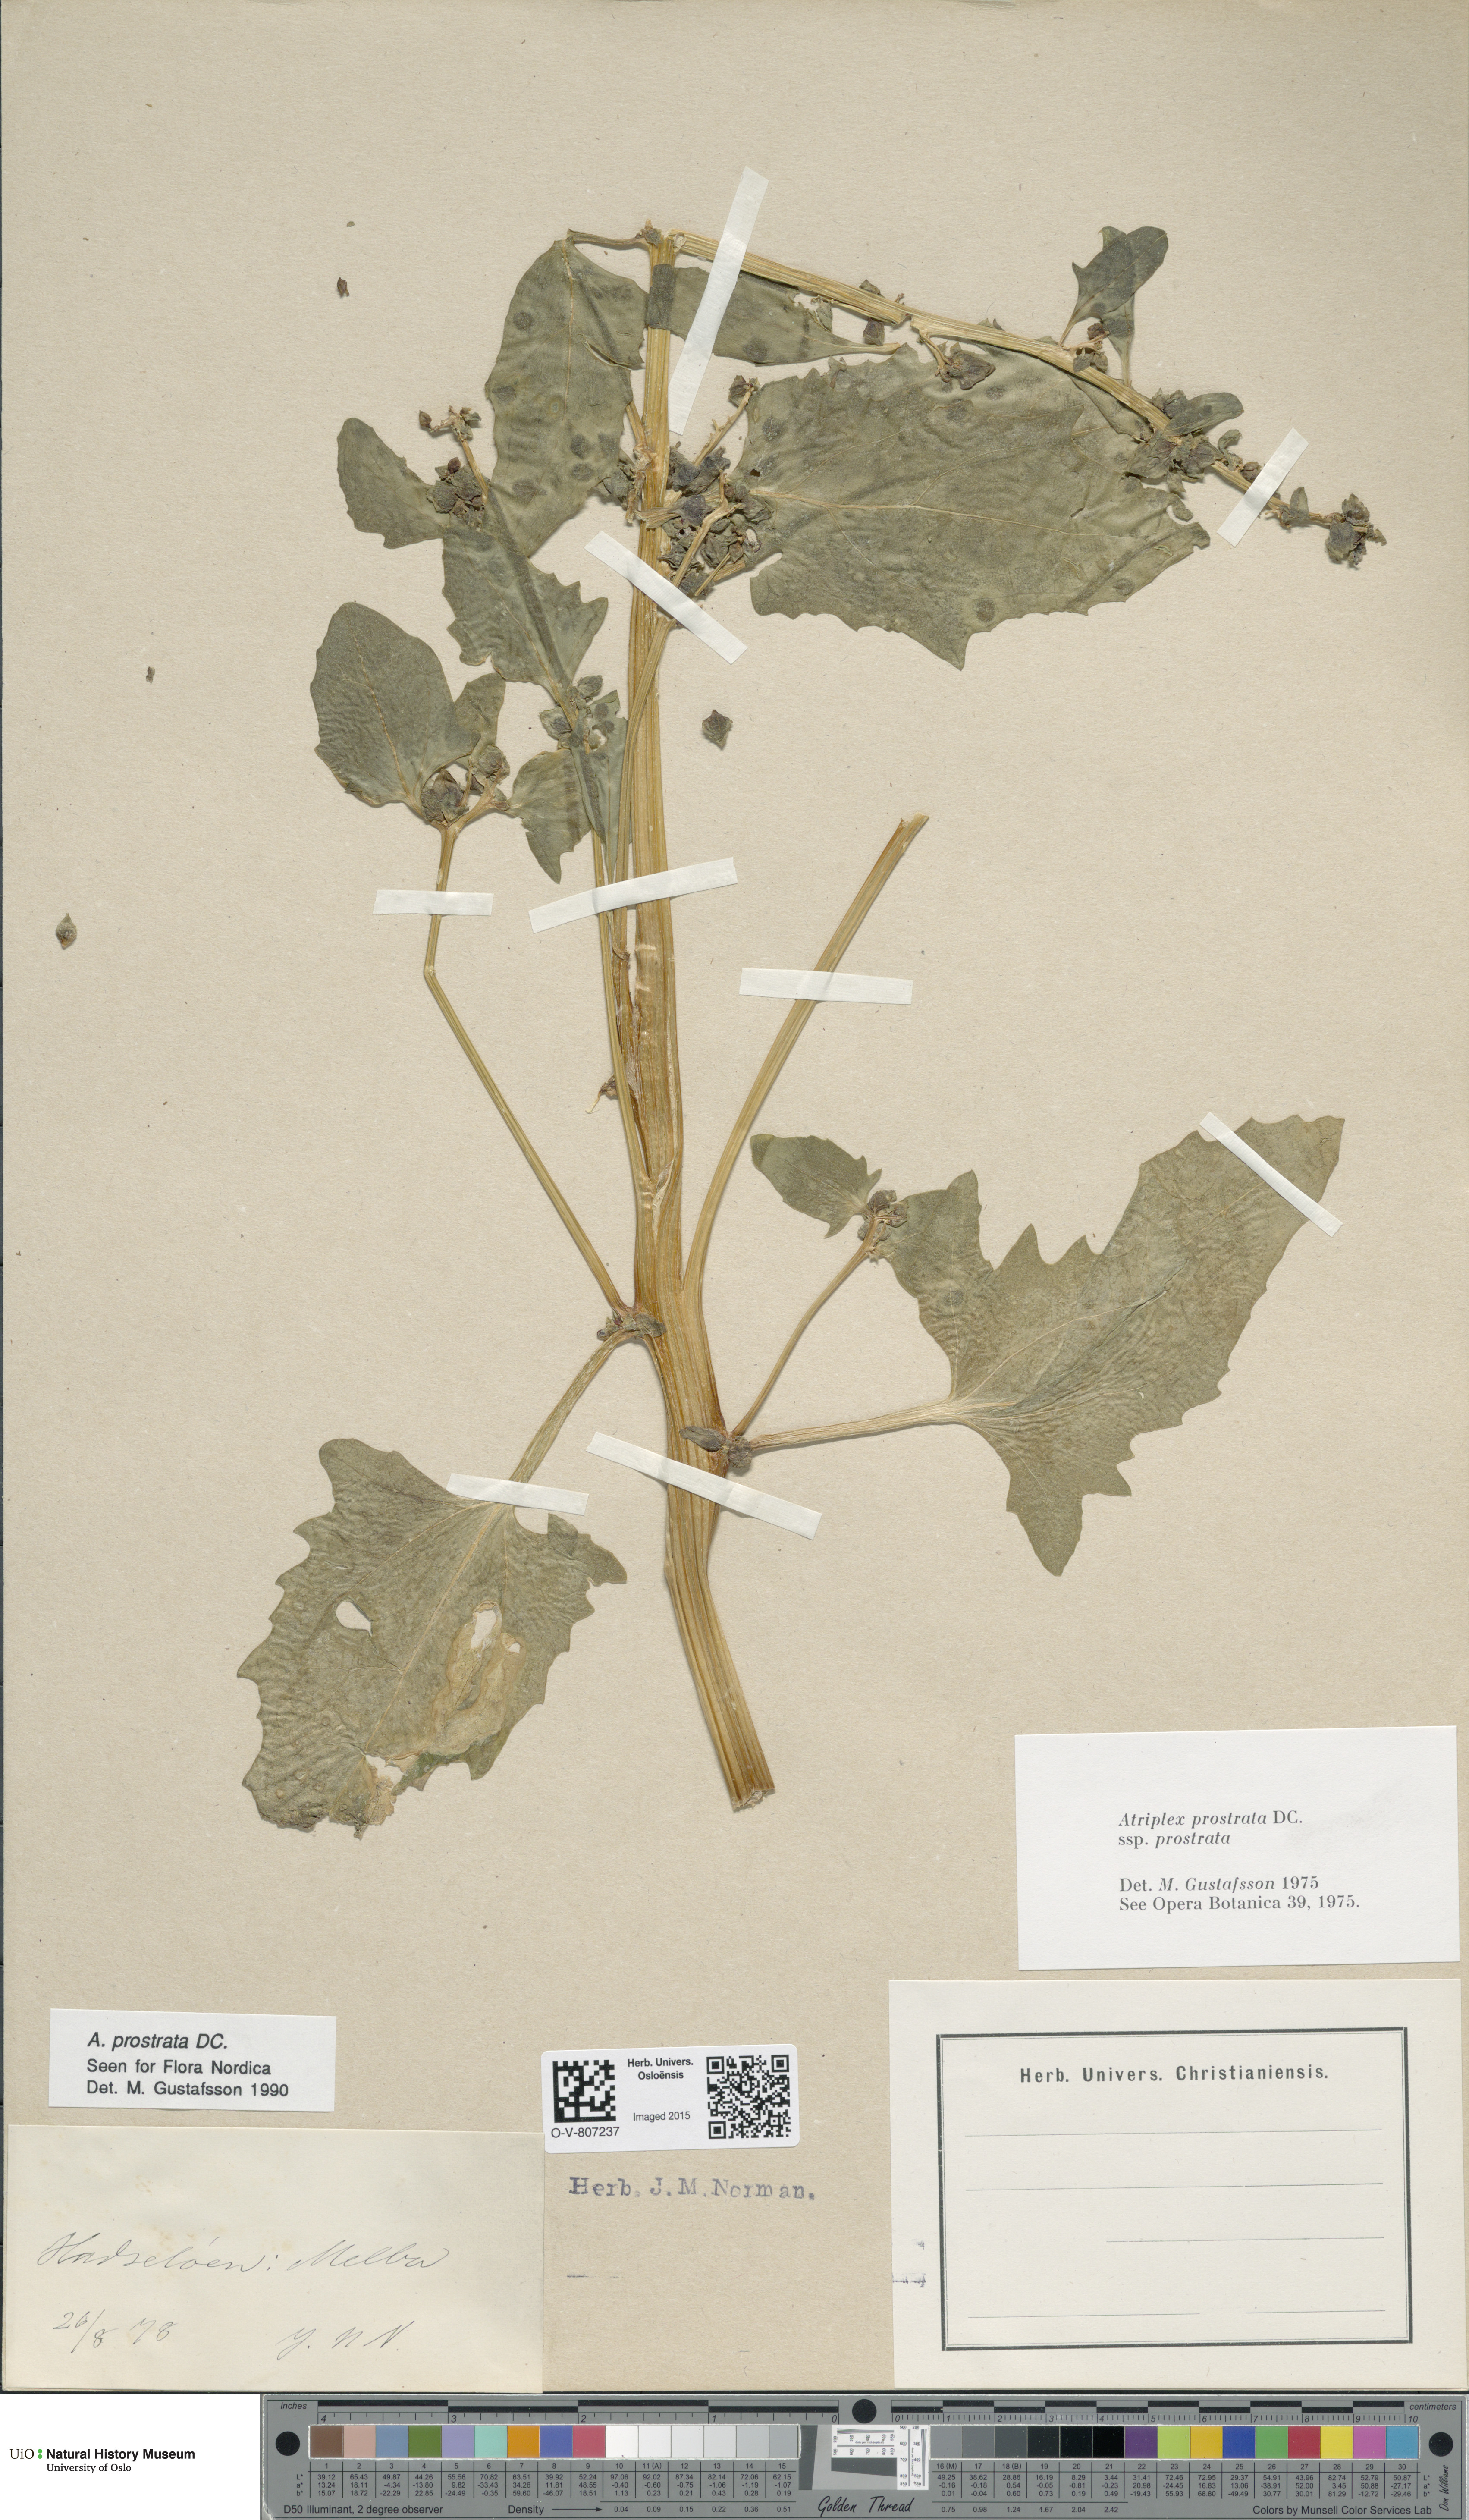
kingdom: Plantae
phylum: Tracheophyta
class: Magnoliopsida
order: Caryophyllales
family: Amaranthaceae
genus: Atriplex
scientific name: Atriplex prostrata
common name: Spear-leaved orache
